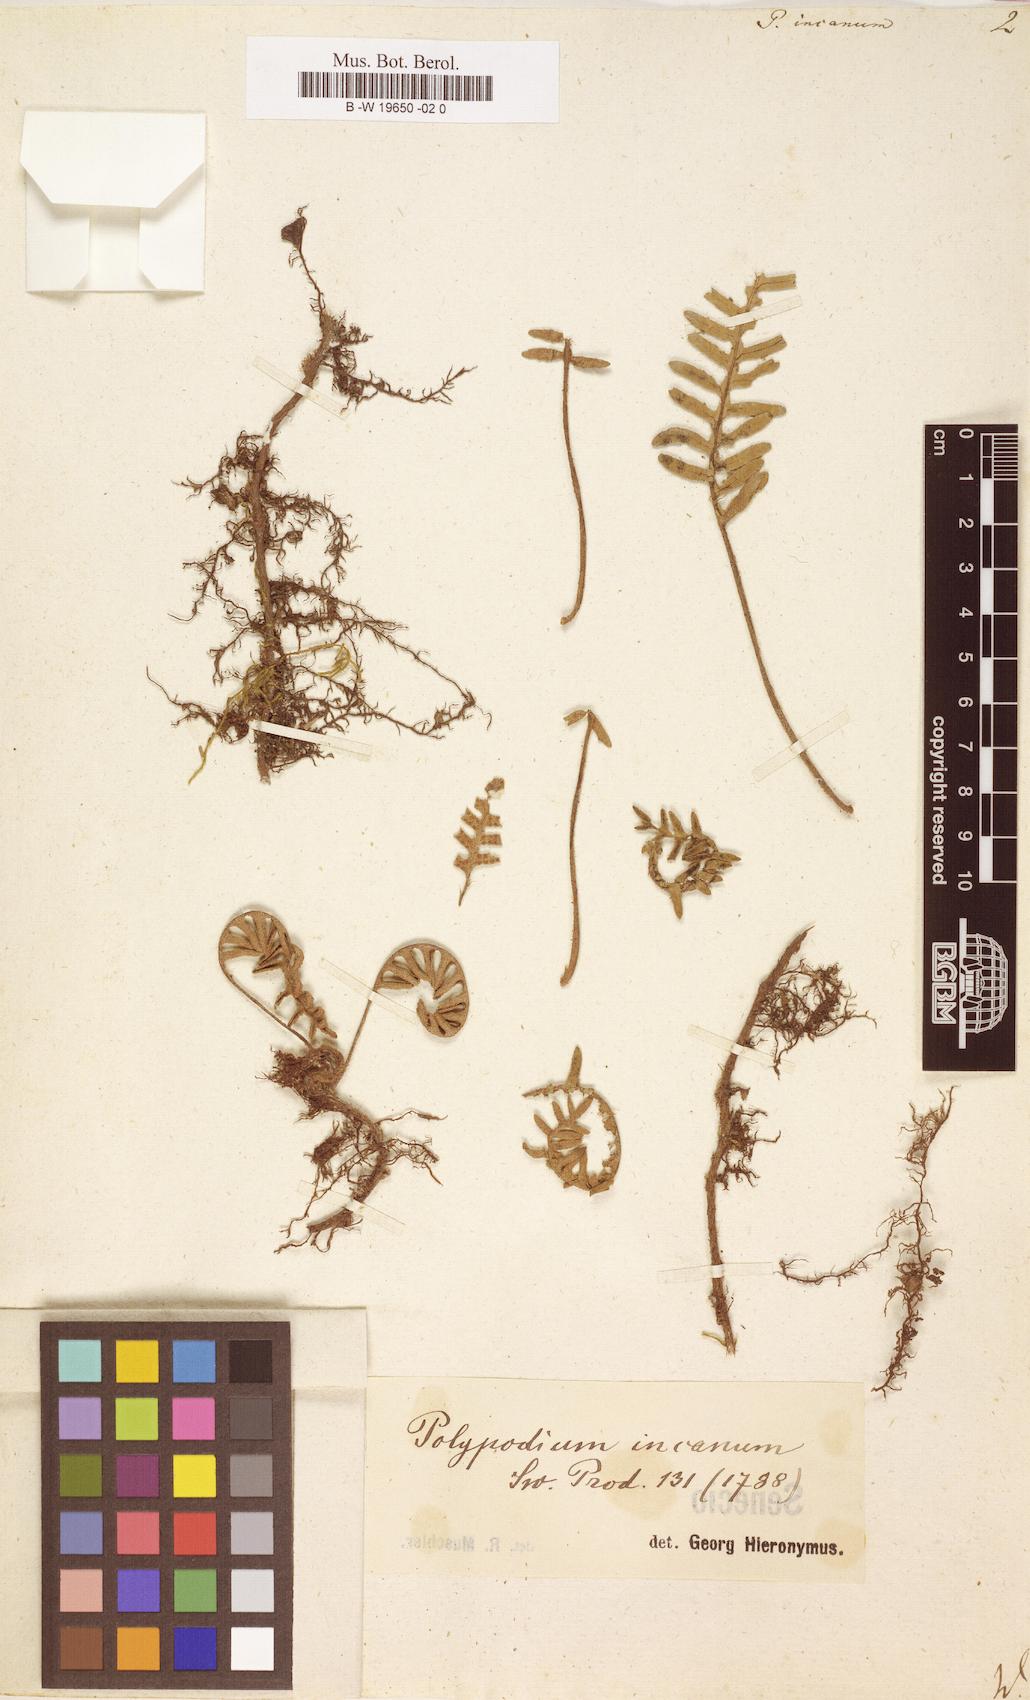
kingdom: Plantae
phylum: Tracheophyta
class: Polypodiopsida
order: Polypodiales
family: Polypodiaceae
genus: Pleopeltis
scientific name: Pleopeltis polypodioides
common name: Resurrection fern
